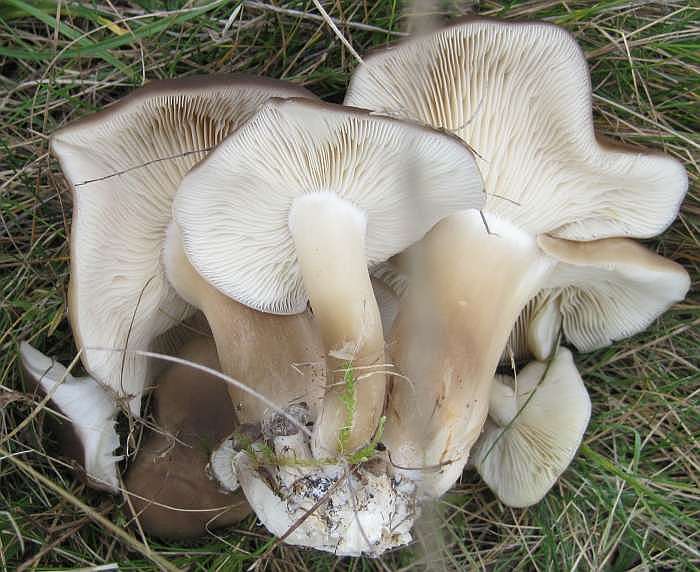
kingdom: Fungi
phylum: Basidiomycota
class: Agaricomycetes
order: Agaricales
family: Lyophyllaceae
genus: Lyophyllum
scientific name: Lyophyllum decastes
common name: Clustered domecap
